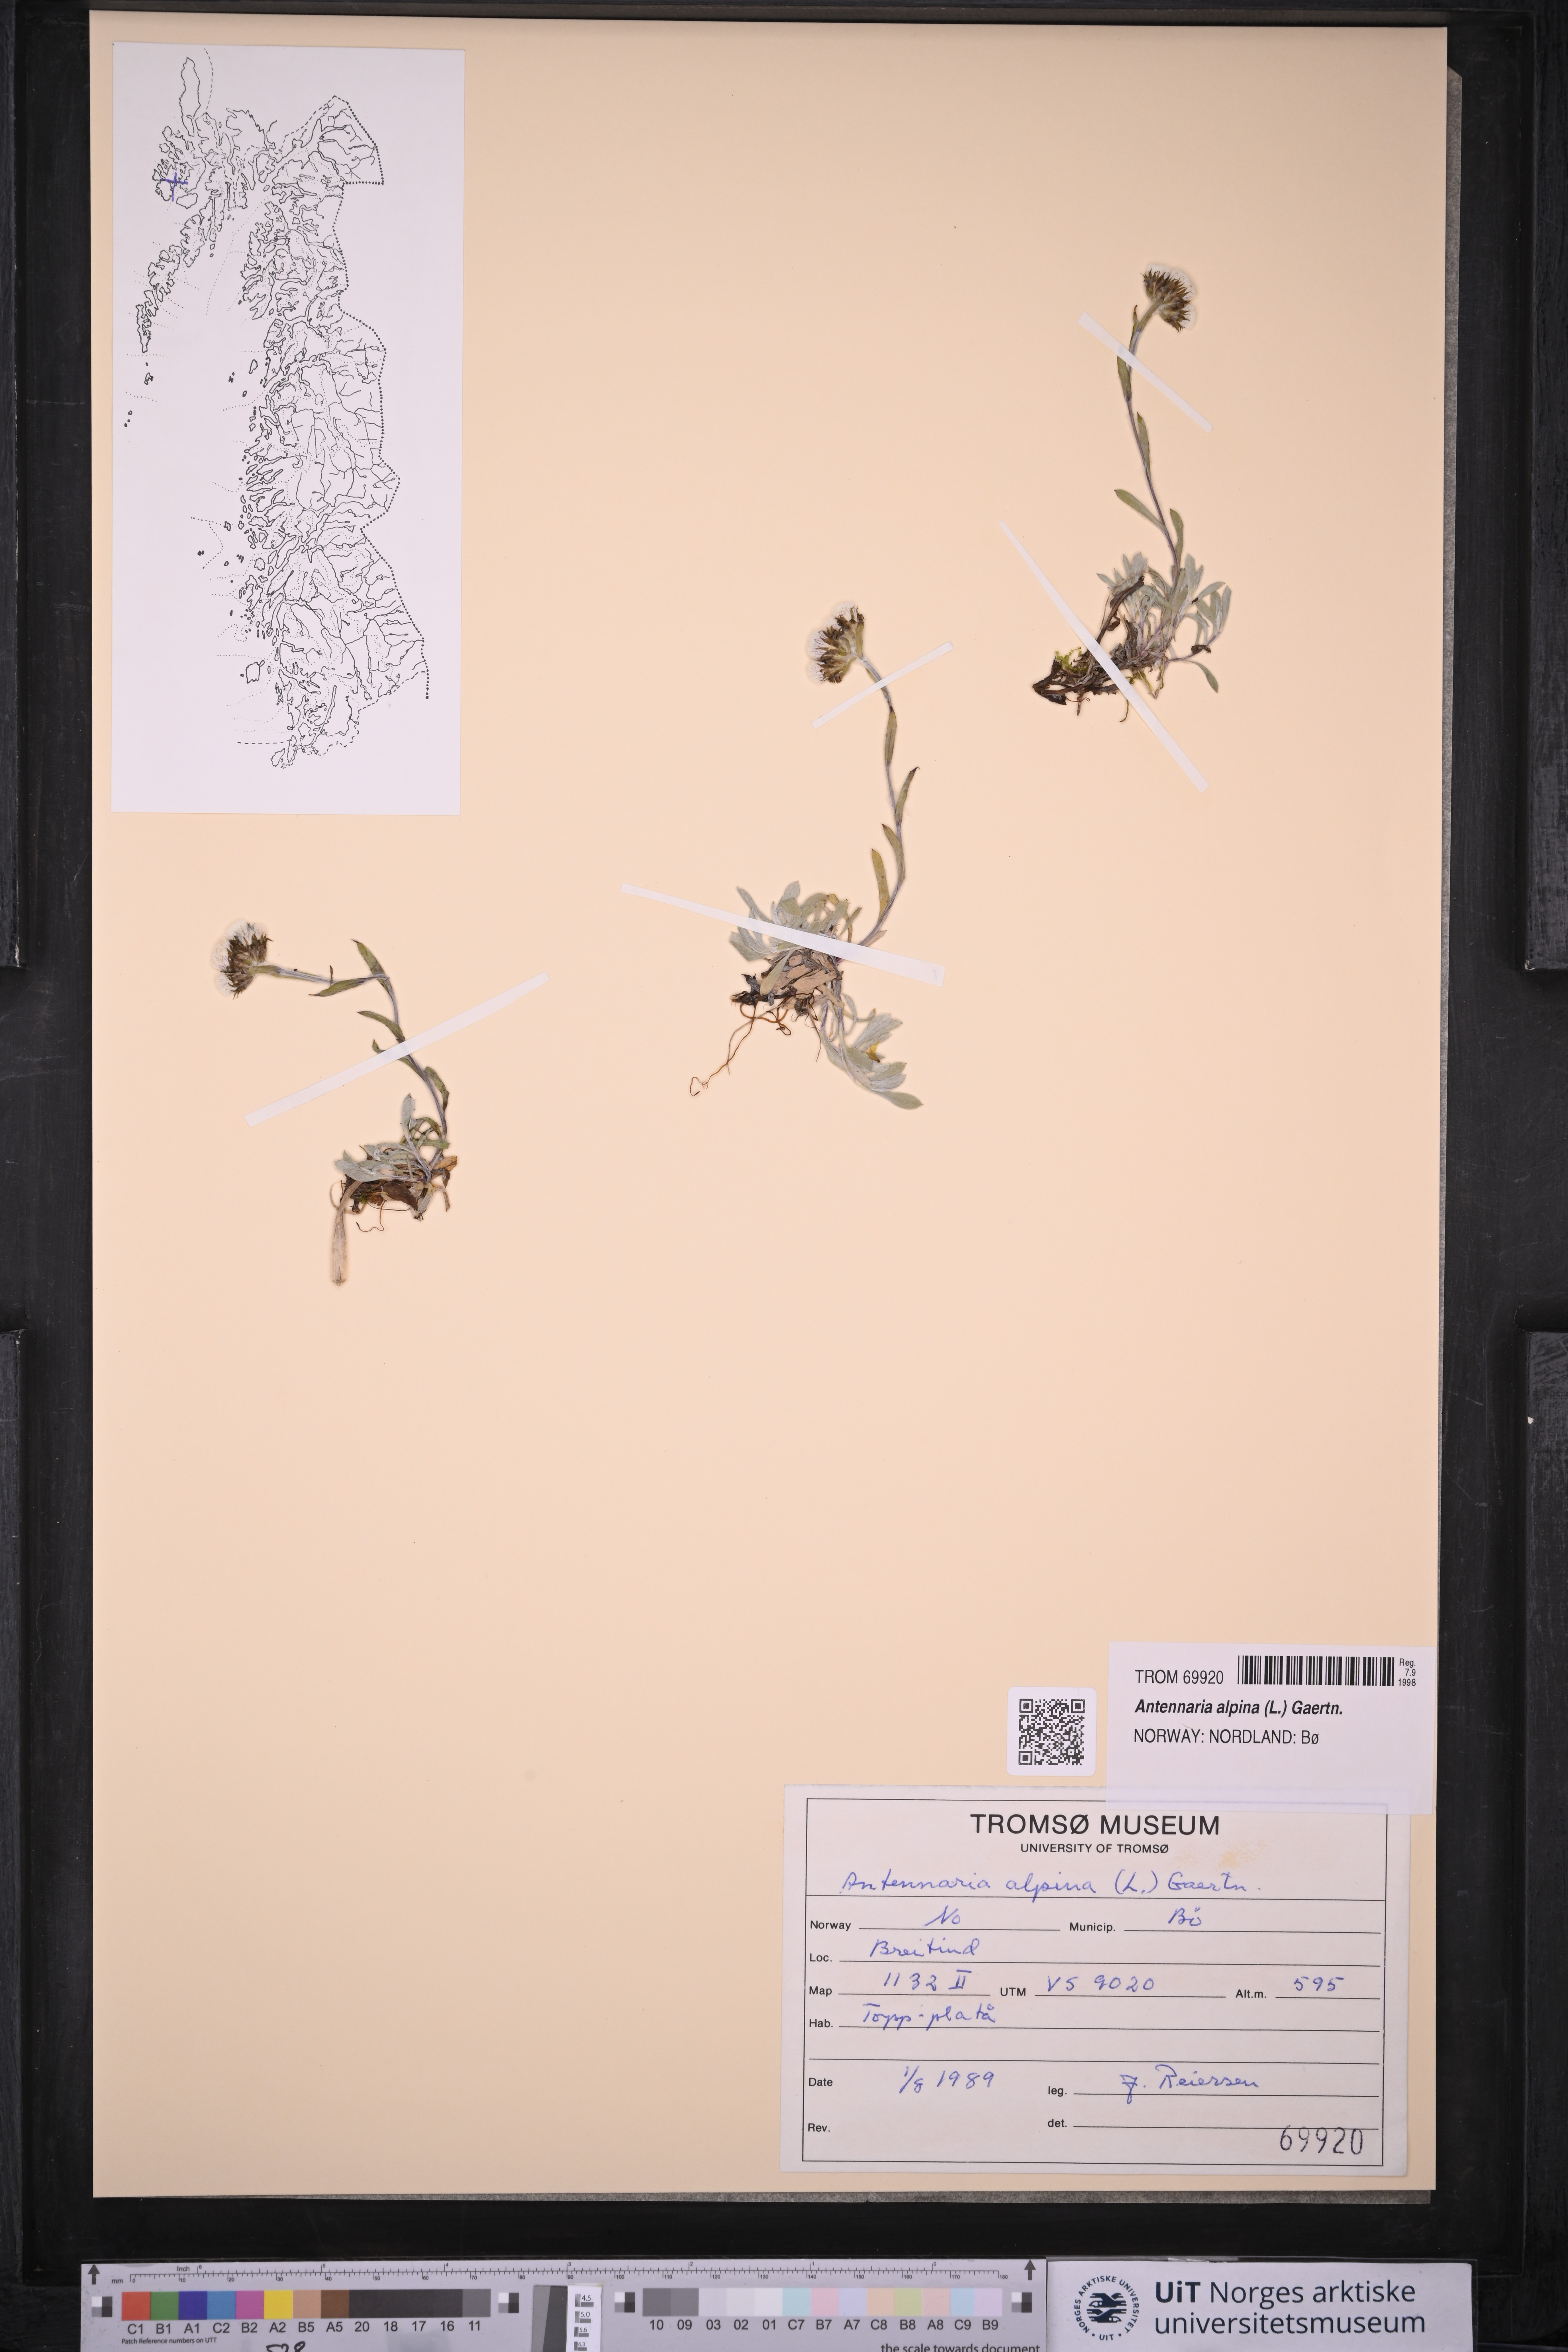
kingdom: Plantae
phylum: Tracheophyta
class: Magnoliopsida
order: Asterales
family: Asteraceae
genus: Antennaria
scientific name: Antennaria alpina
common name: Alpine pussytoes
